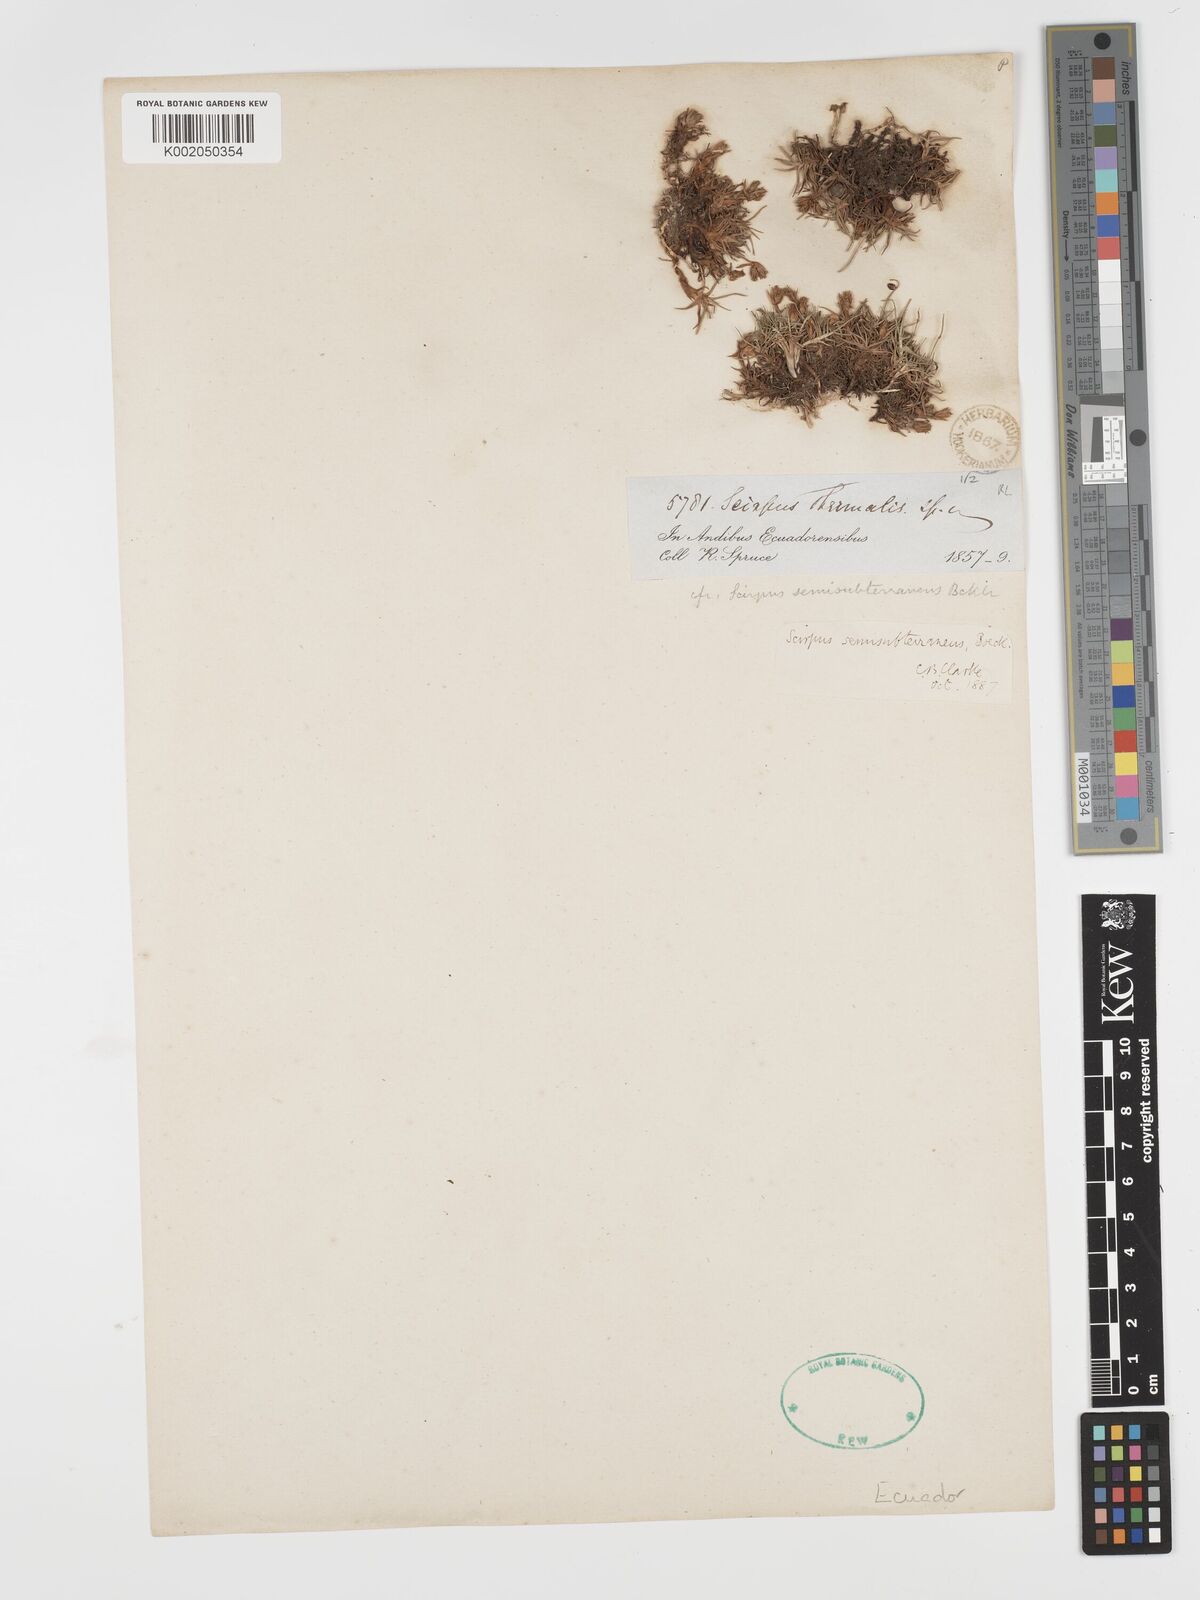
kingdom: Plantae
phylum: Tracheophyta
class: Liliopsida
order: Poales
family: Cyperaceae
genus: Phylloscirpus
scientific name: Phylloscirpus deserticola
